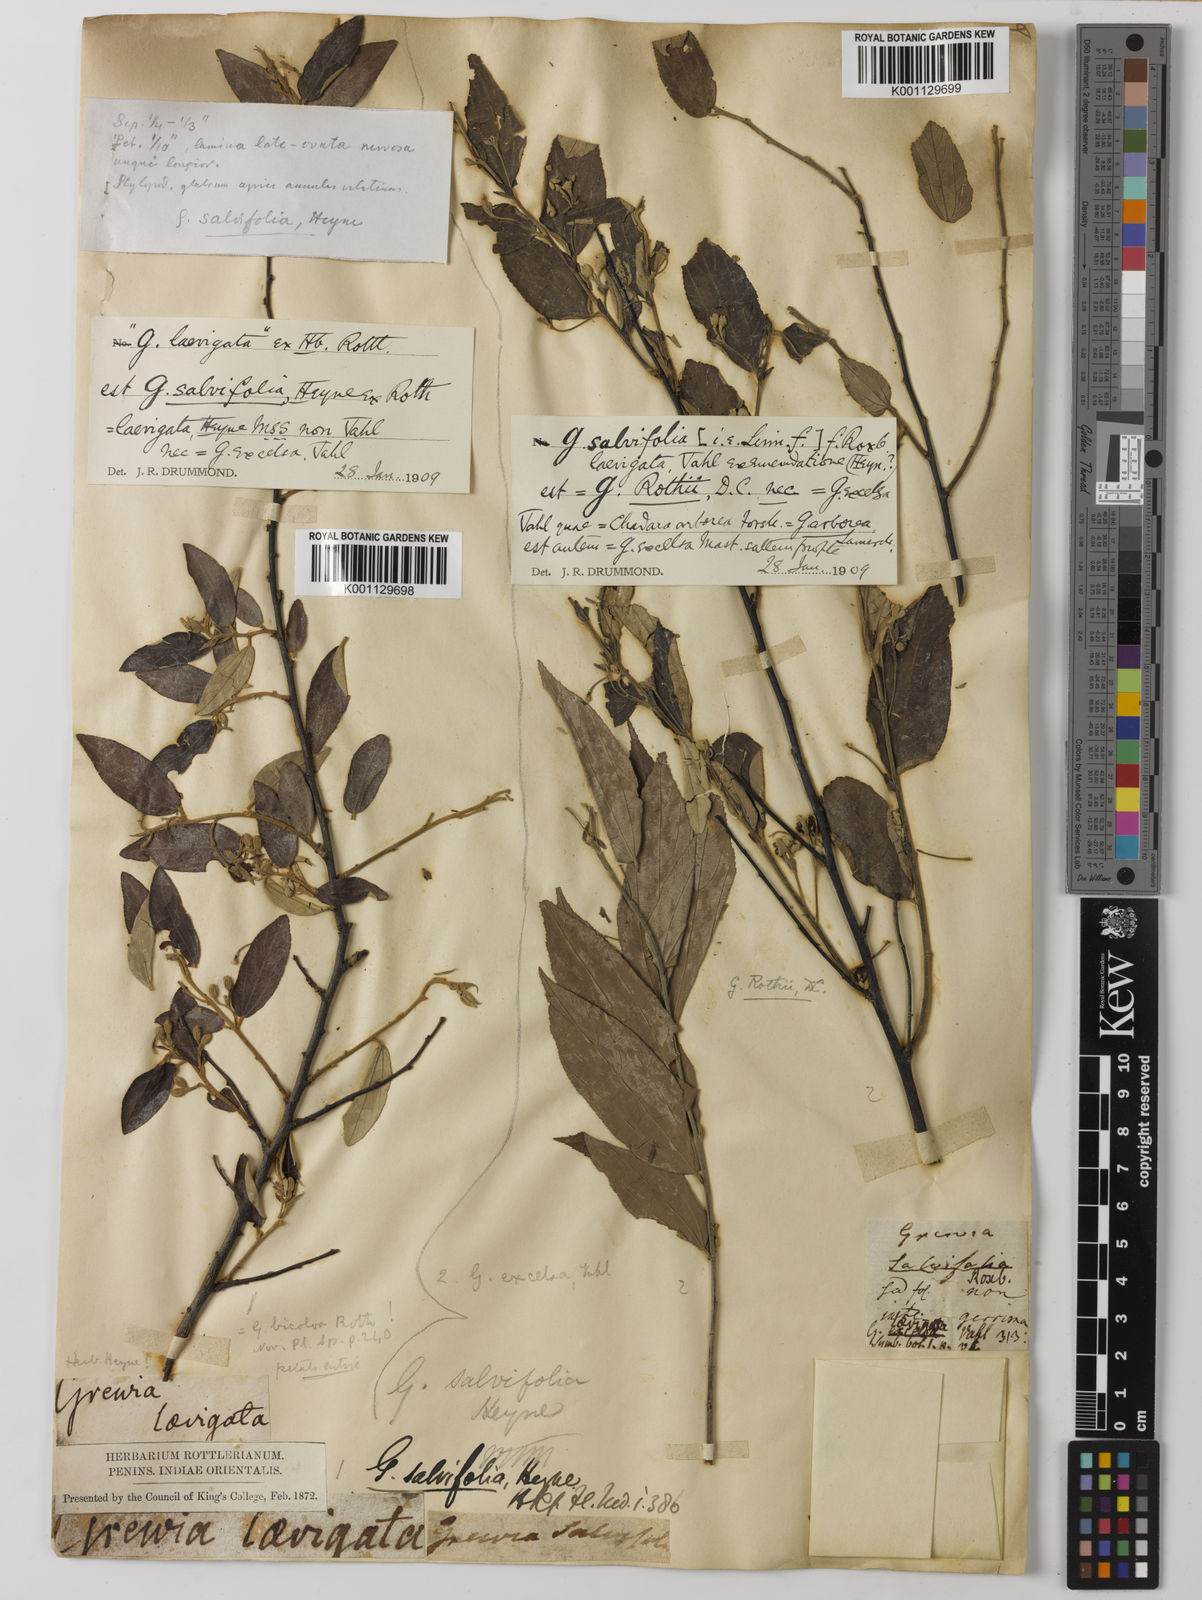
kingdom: Plantae
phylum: Tracheophyta
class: Magnoliopsida
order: Malvales
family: Malvaceae
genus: Grewia
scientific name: Grewia excelsa
